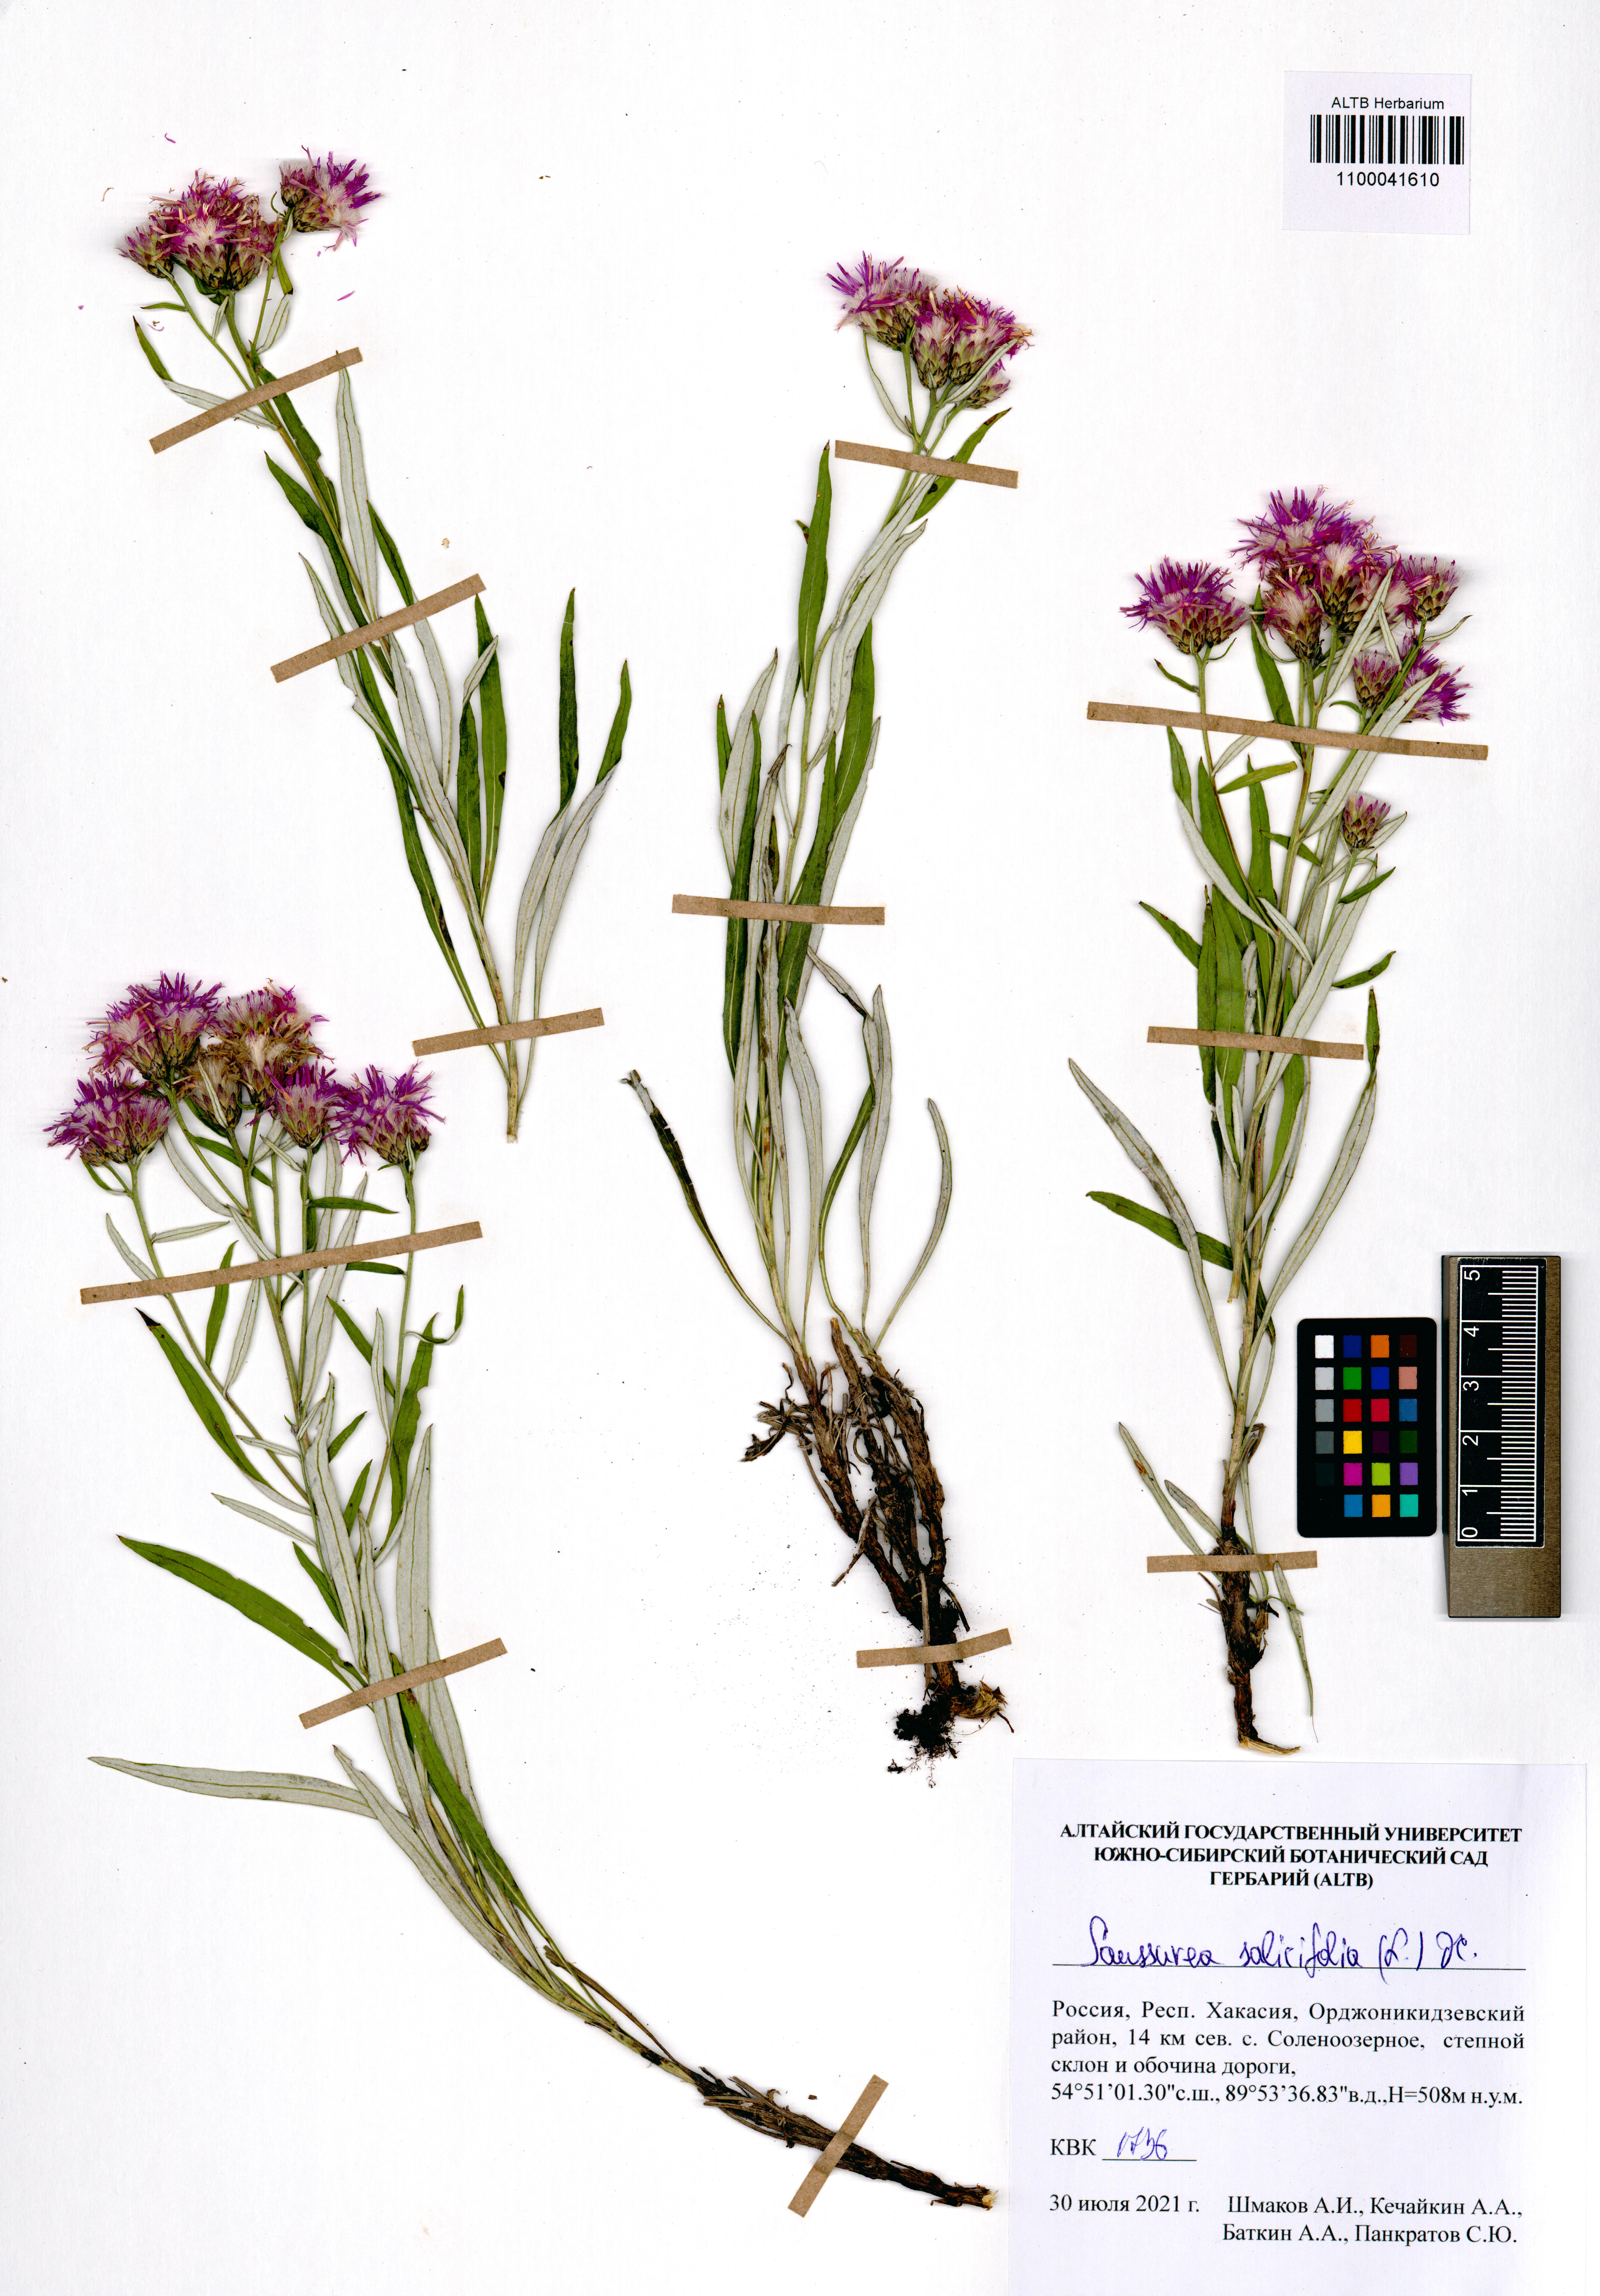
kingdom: Plantae
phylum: Tracheophyta
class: Magnoliopsida
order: Asterales
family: Asteraceae
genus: Saussurea
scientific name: Saussurea salicifolia
